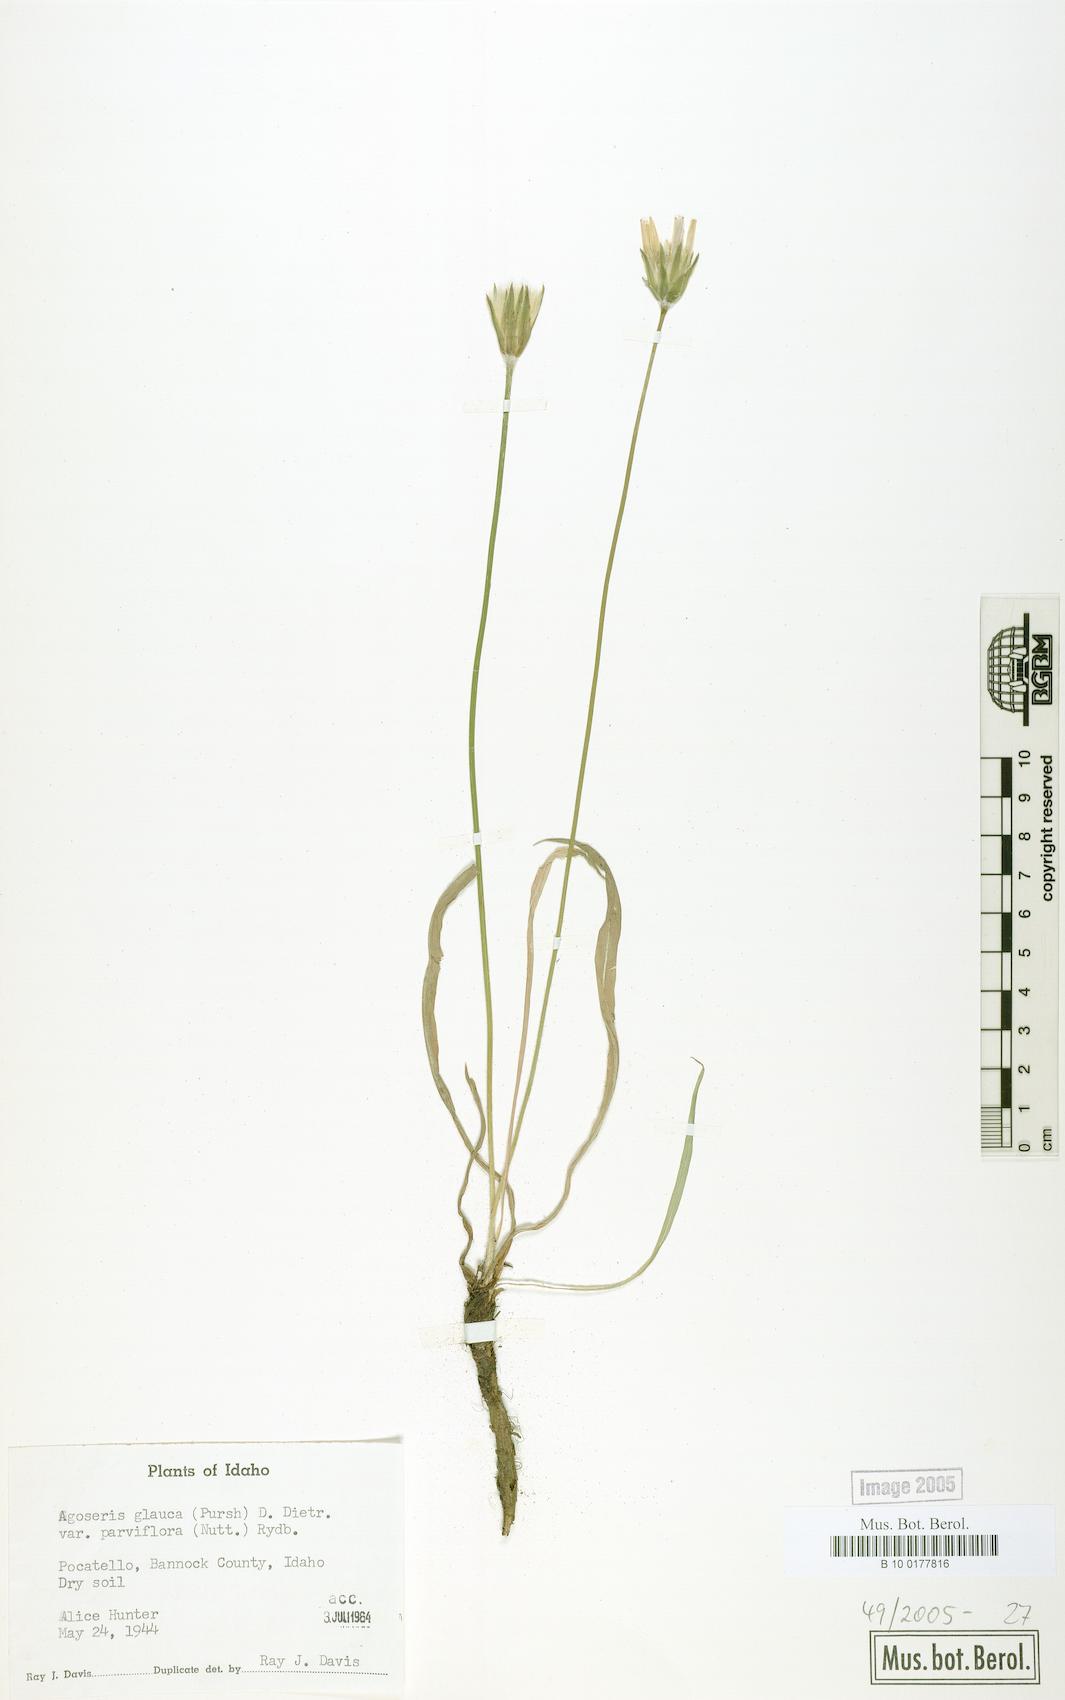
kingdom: Plantae
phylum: Tracheophyta
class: Magnoliopsida
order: Asterales
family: Asteraceae
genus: Agoseris
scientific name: Agoseris parviflora
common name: Steppe agoseris
